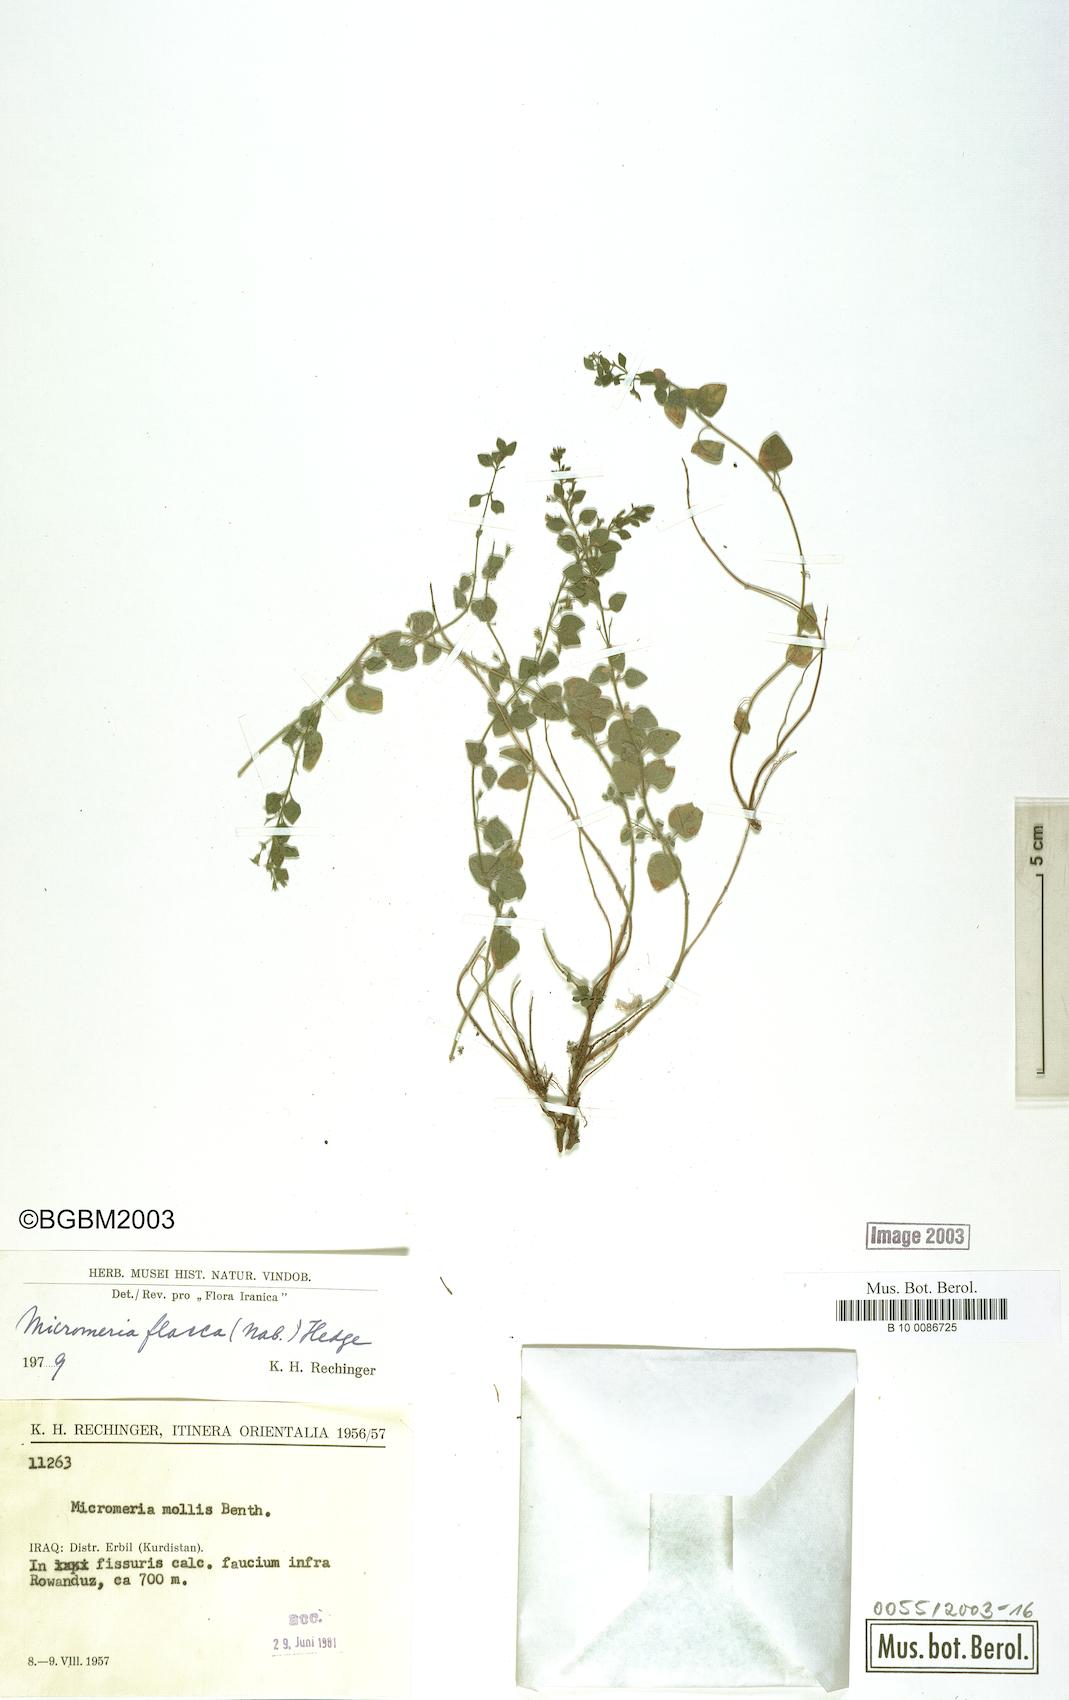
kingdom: Plantae
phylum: Tracheophyta
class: Magnoliopsida
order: Lamiales
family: Lamiaceae
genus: Micromeria
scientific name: Micromeria flacca
